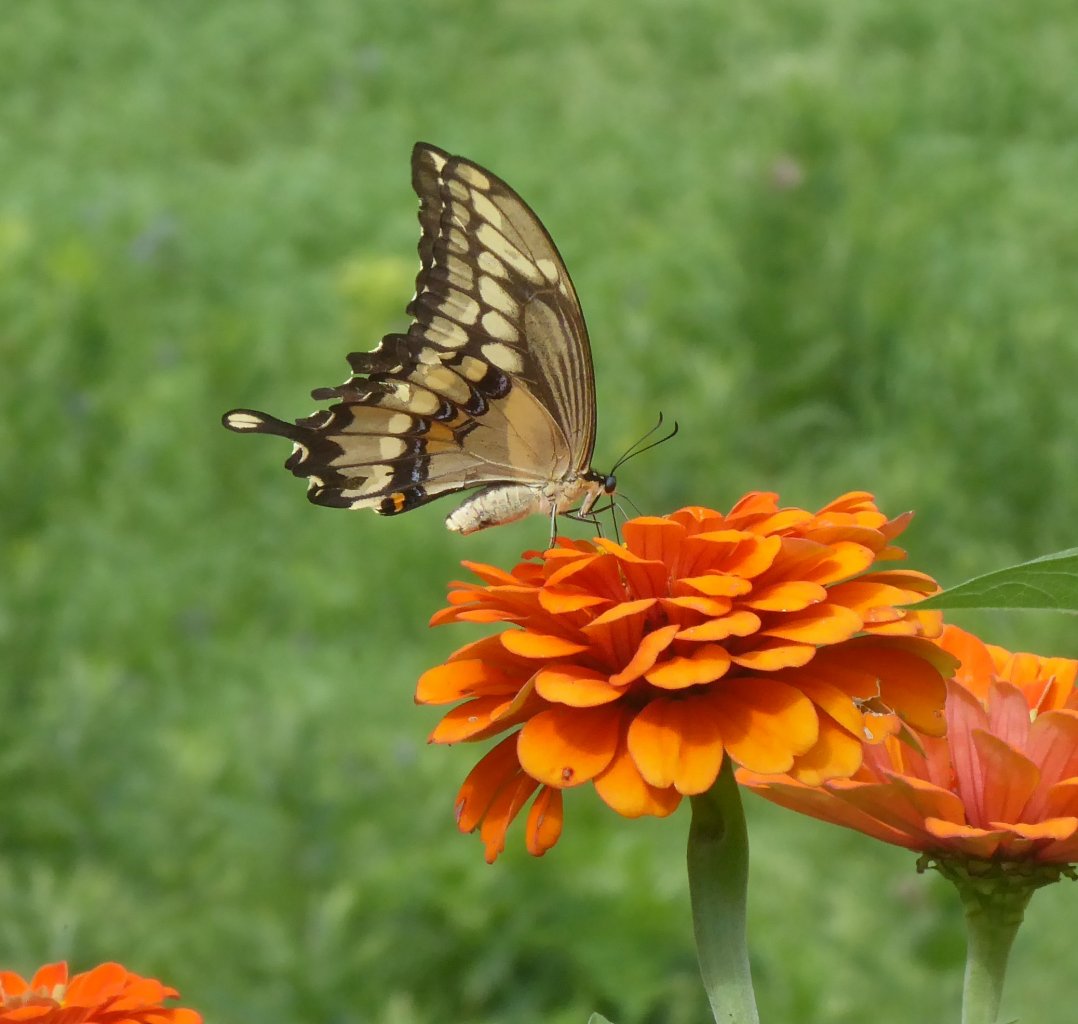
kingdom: Animalia
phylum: Arthropoda
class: Insecta
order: Lepidoptera
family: Papilionidae
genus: Papilio
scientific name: Papilio cresphontes
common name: Eastern Giant Swallowtail
